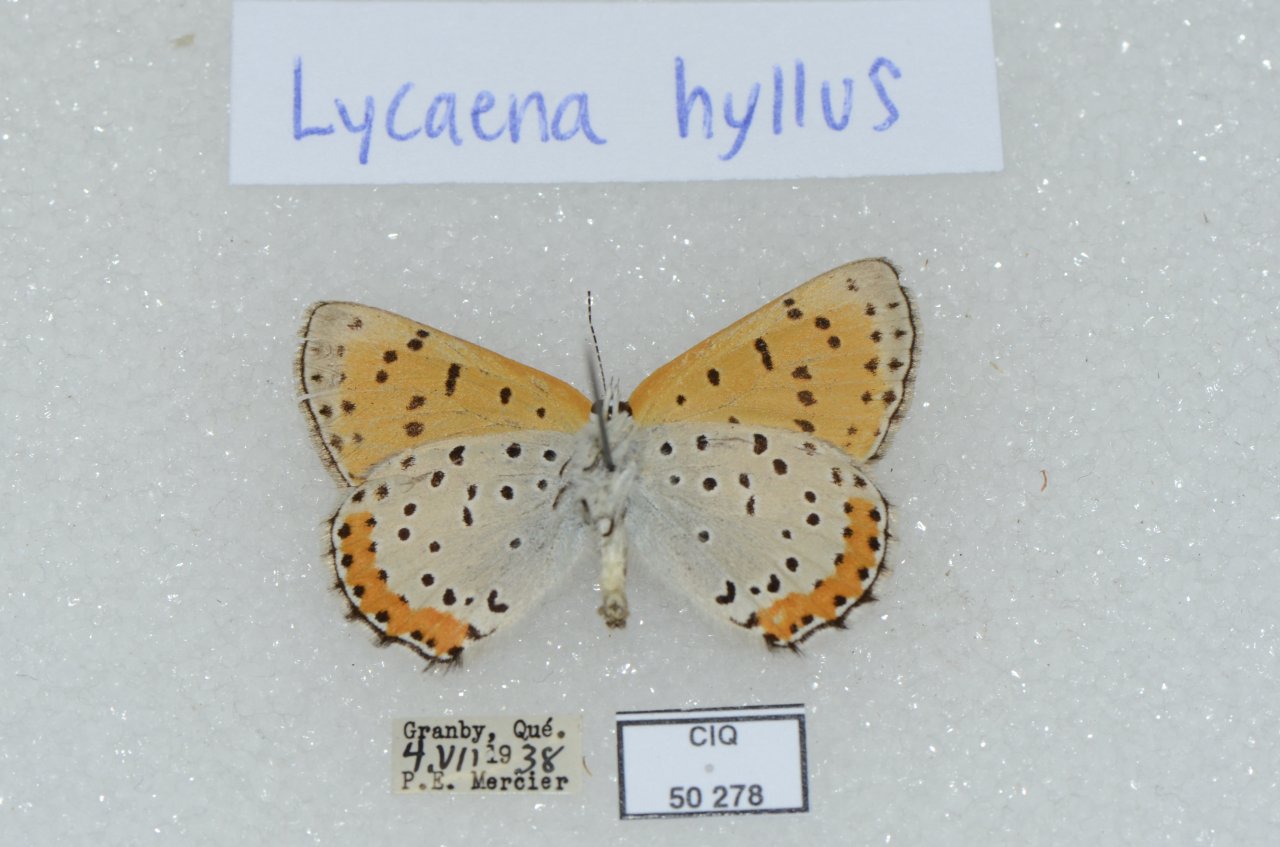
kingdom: Animalia
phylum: Arthropoda
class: Insecta
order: Lepidoptera
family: Sesiidae
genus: Sesia
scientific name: Sesia Lycaena hyllus
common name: Bronze Copper
